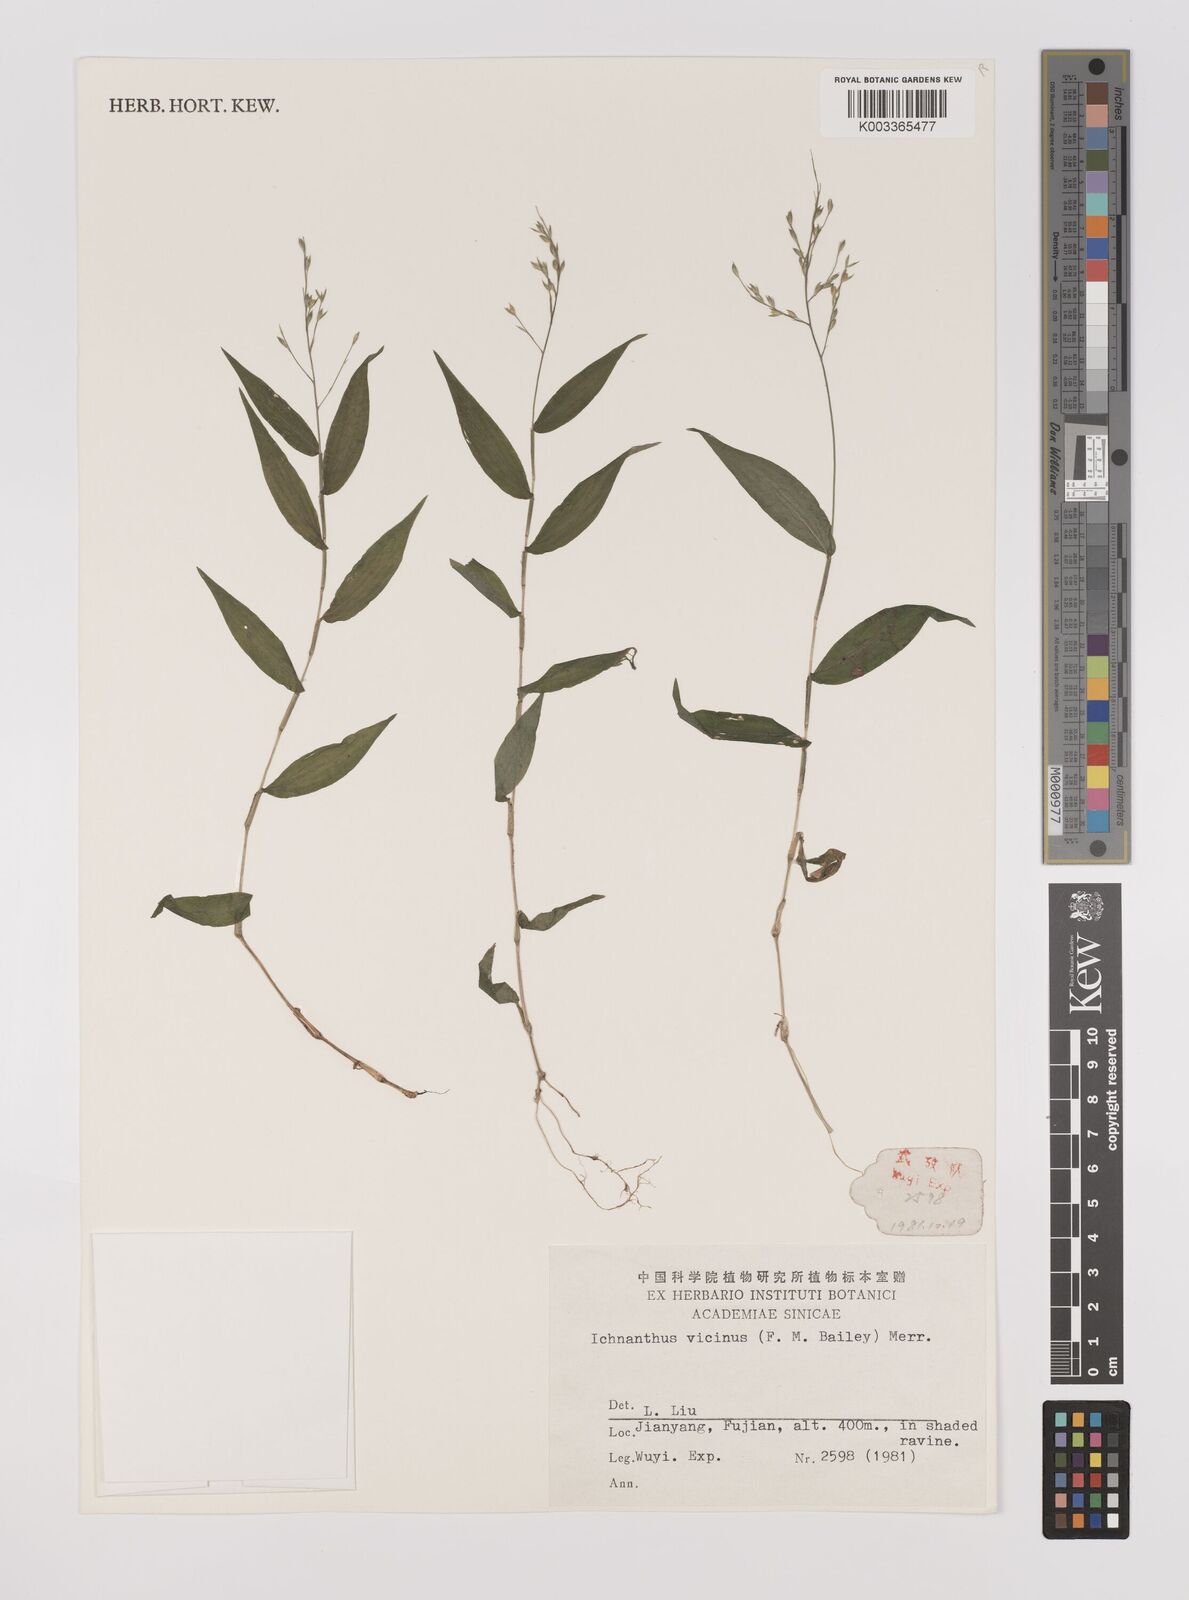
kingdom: Plantae
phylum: Tracheophyta
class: Liliopsida
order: Poales
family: Poaceae
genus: Ichnanthus
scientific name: Ichnanthus pallens
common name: Water grass
